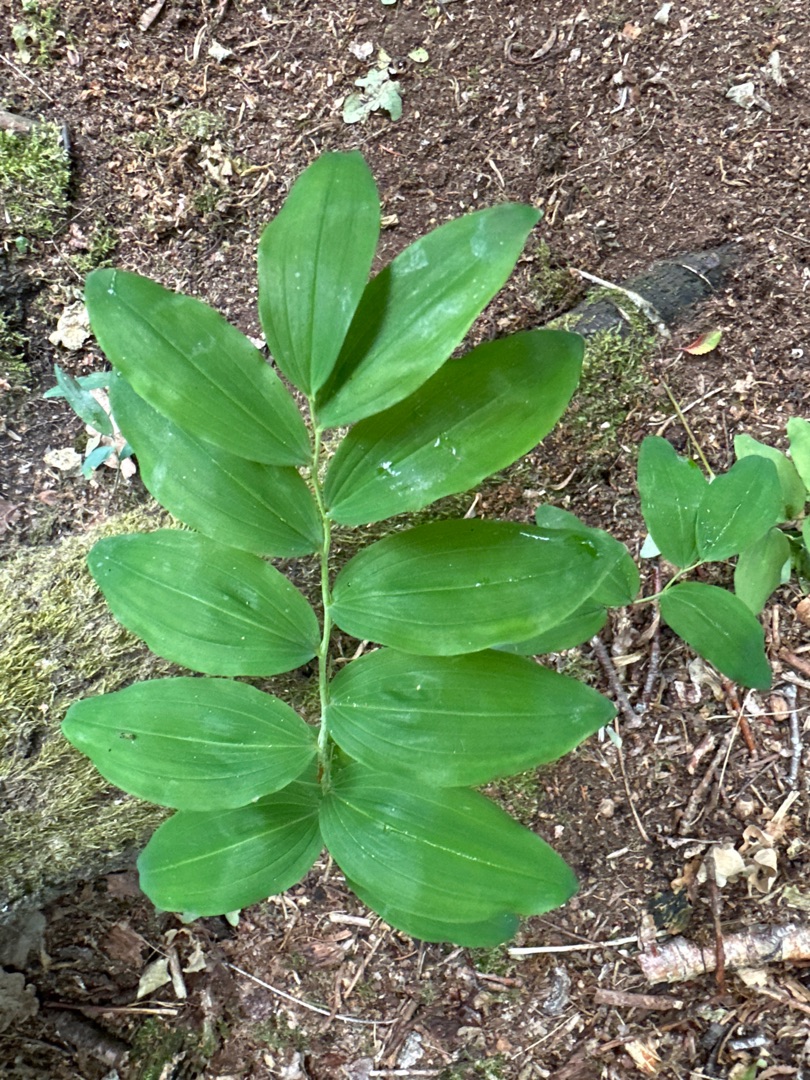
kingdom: Plantae
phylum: Tracheophyta
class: Liliopsida
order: Asparagales
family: Asparagaceae
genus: Polygonatum
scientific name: Polygonatum multiflorum
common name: Stor konval
